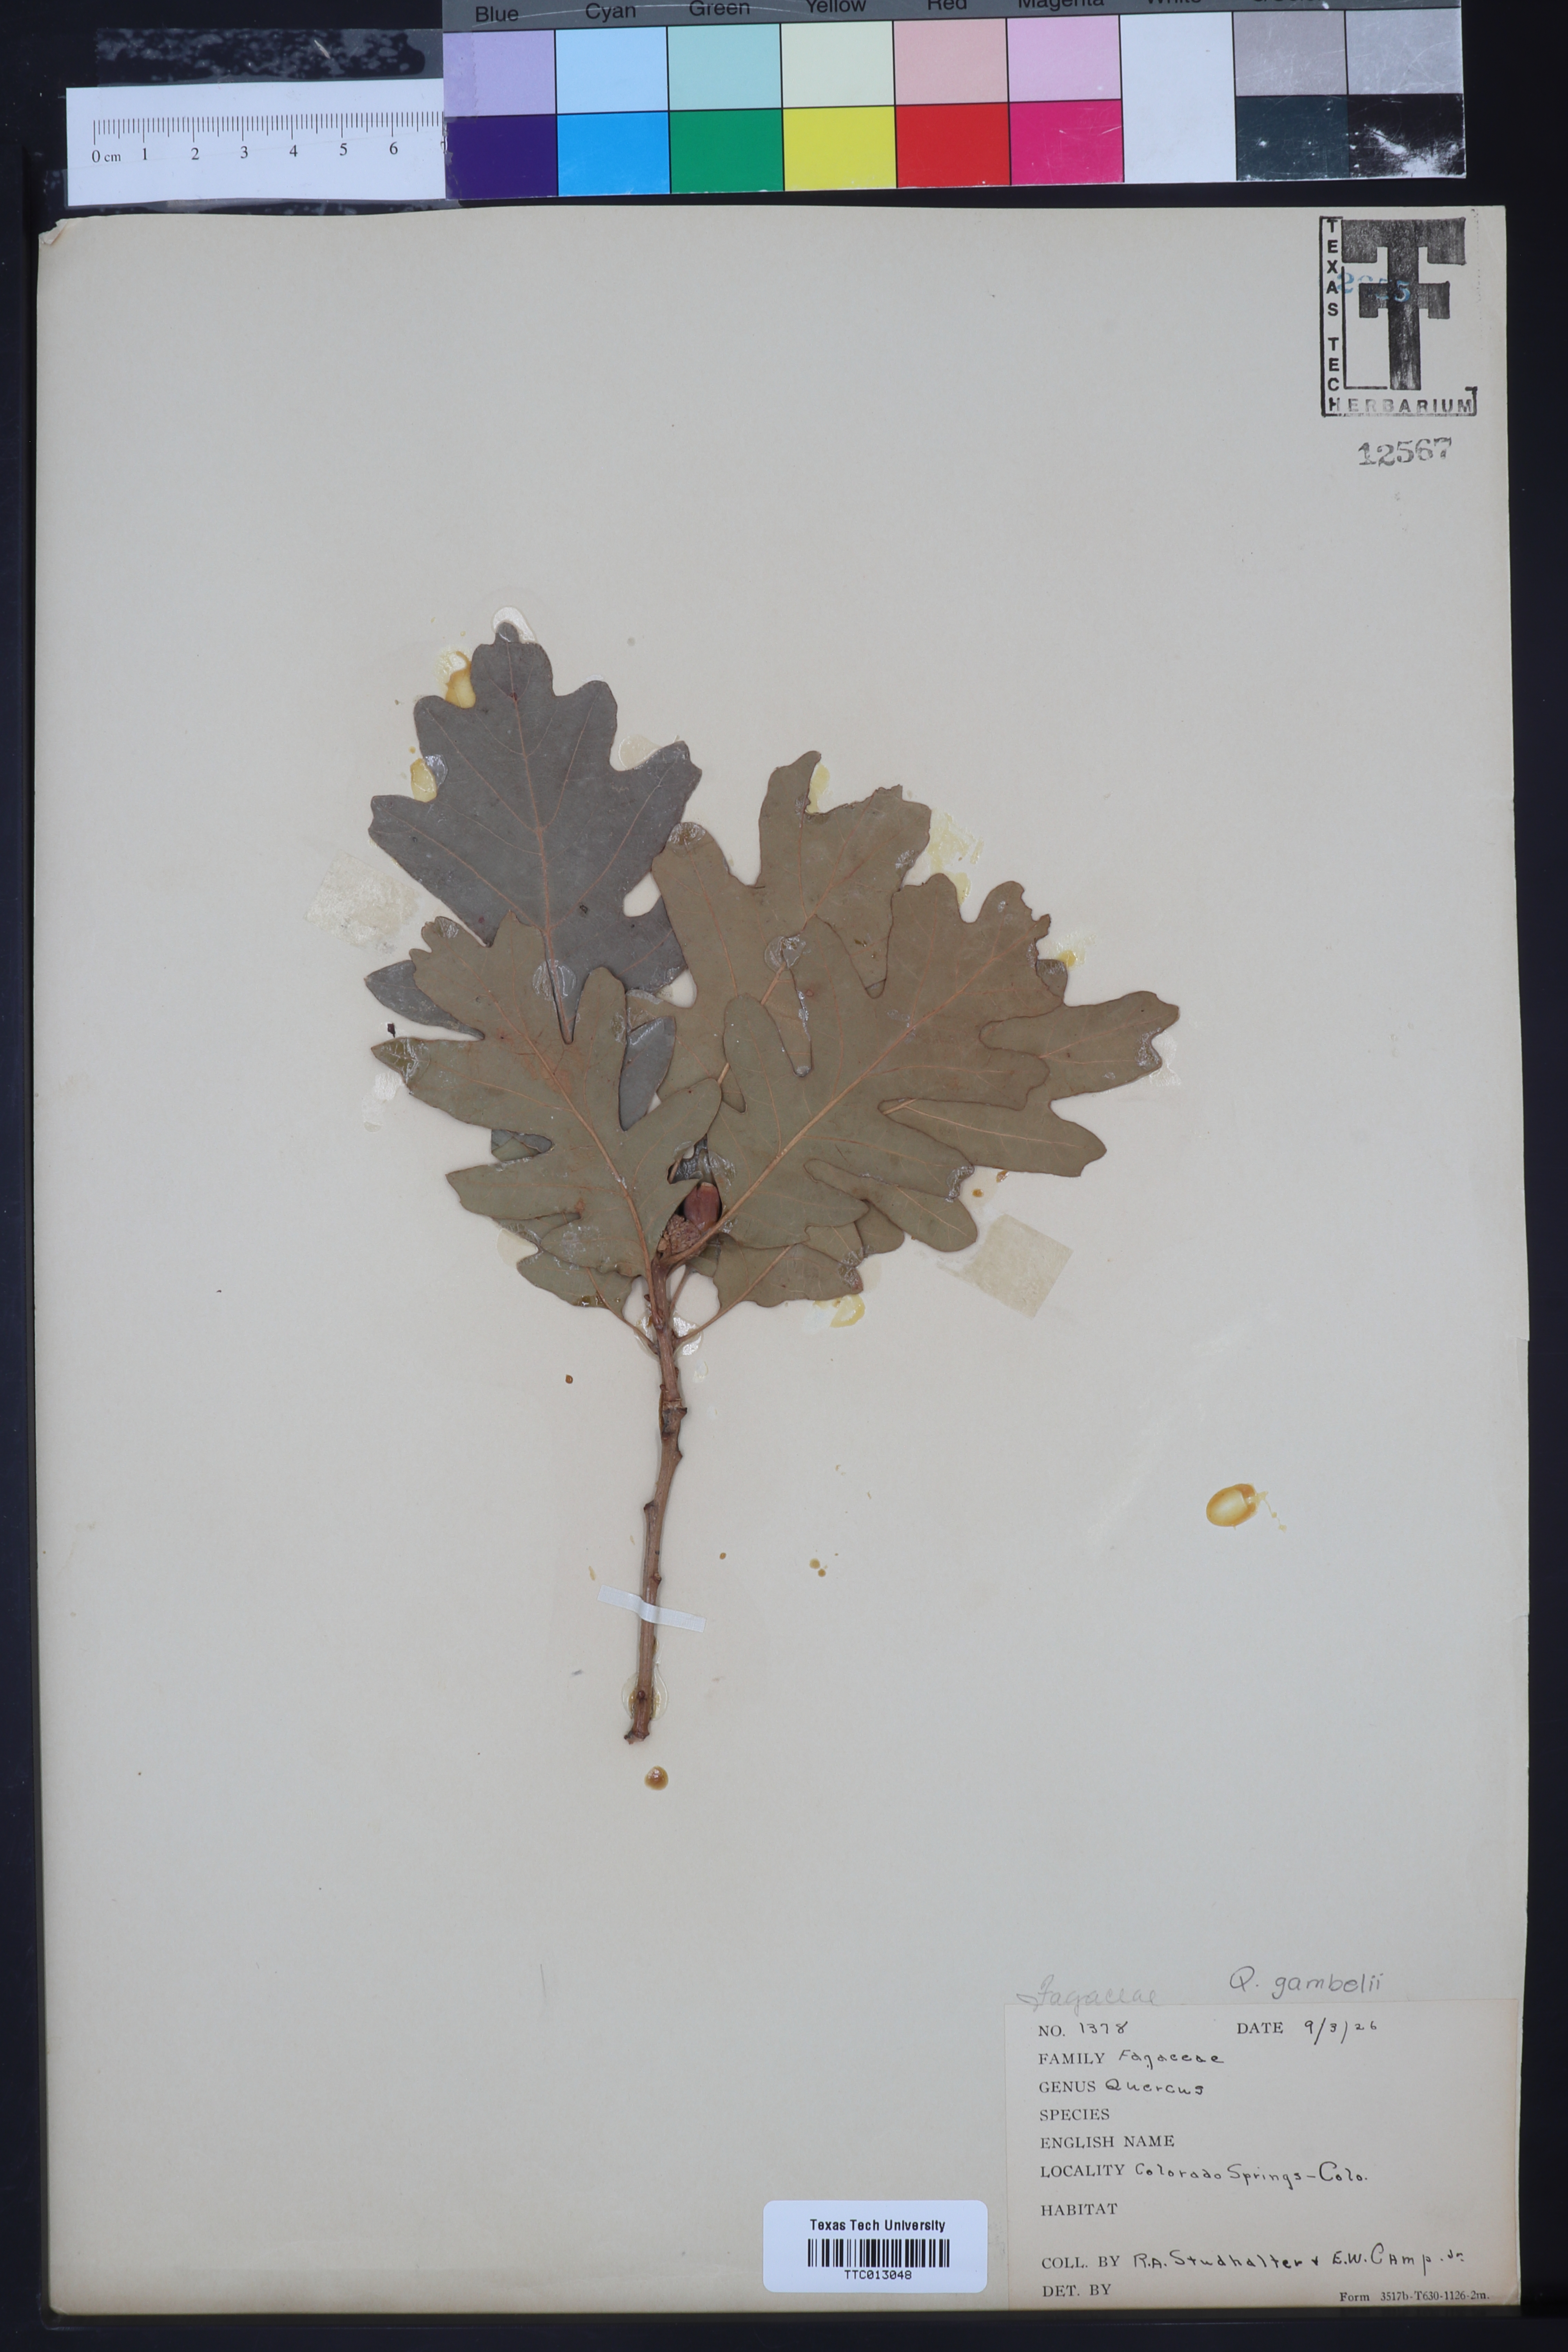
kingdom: Plantae
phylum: Tracheophyta
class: Magnoliopsida
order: Fagales
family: Fagaceae
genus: Quercus
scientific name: Quercus gambelii
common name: Gambel oak
